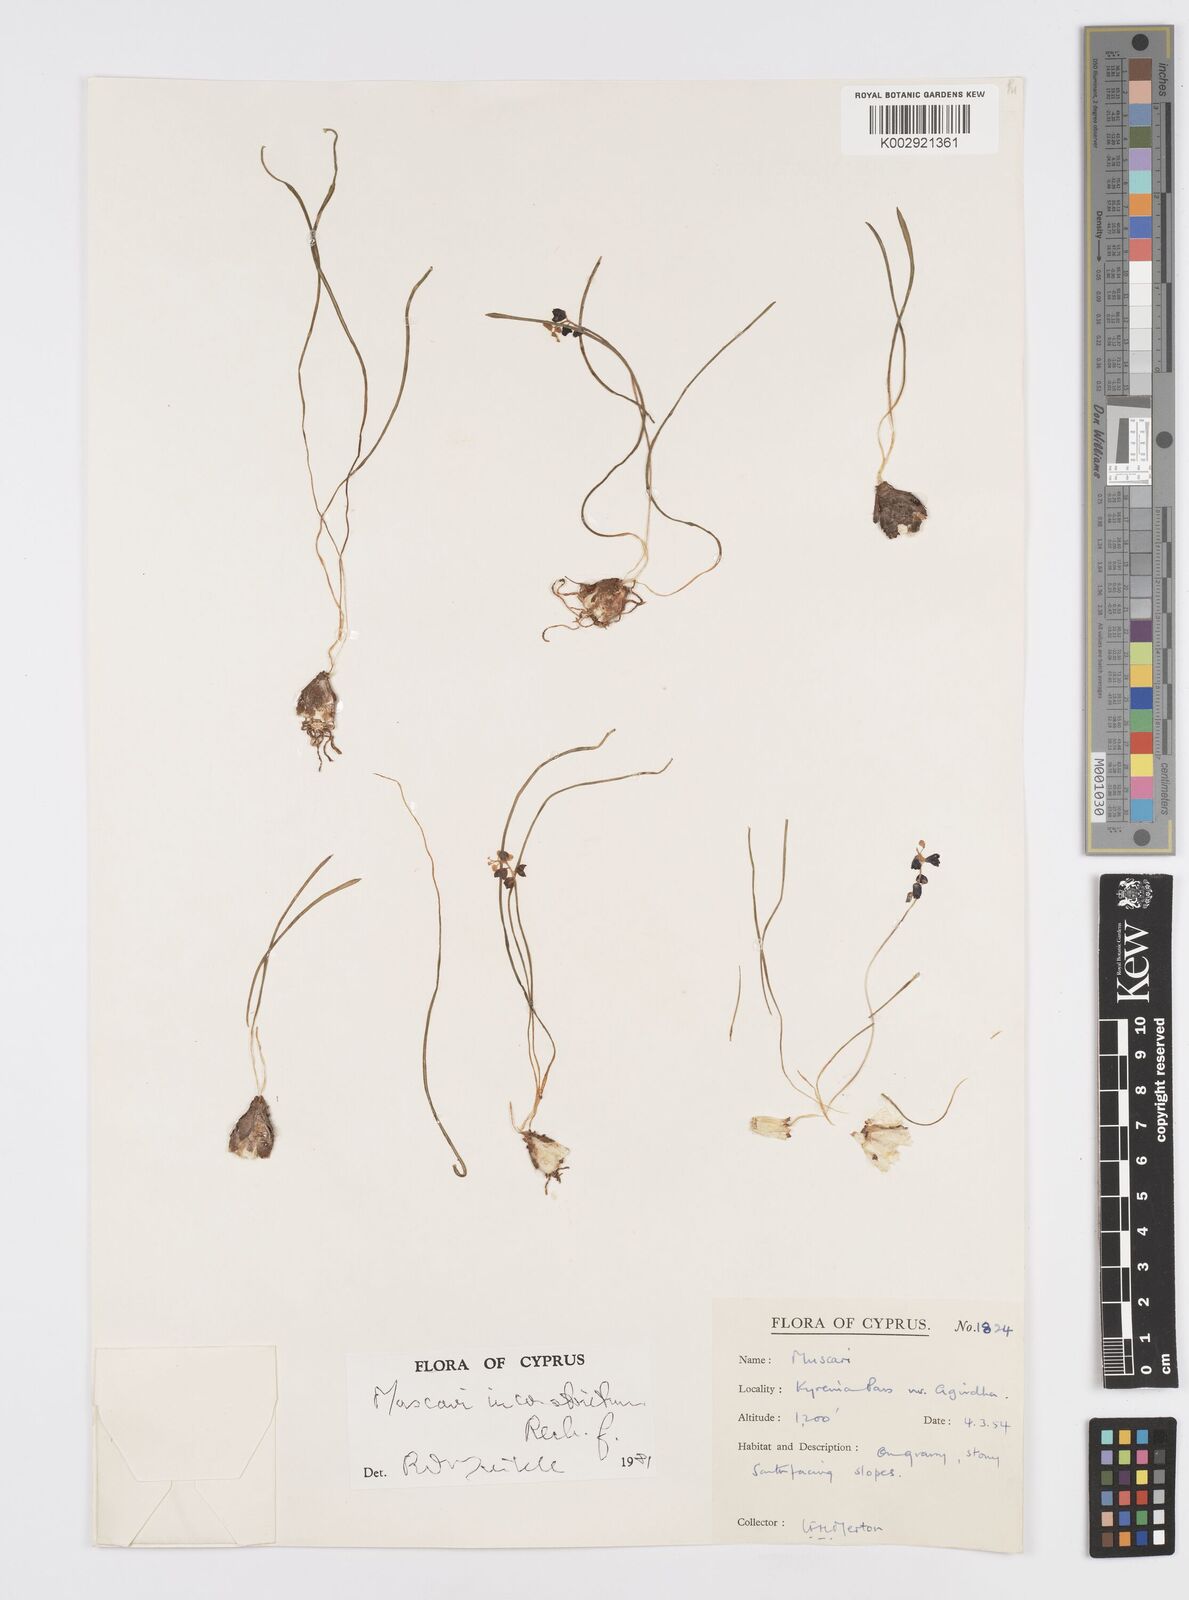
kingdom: Plantae
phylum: Tracheophyta
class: Liliopsida
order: Asparagales
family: Asparagaceae
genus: Muscari
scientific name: Muscari
